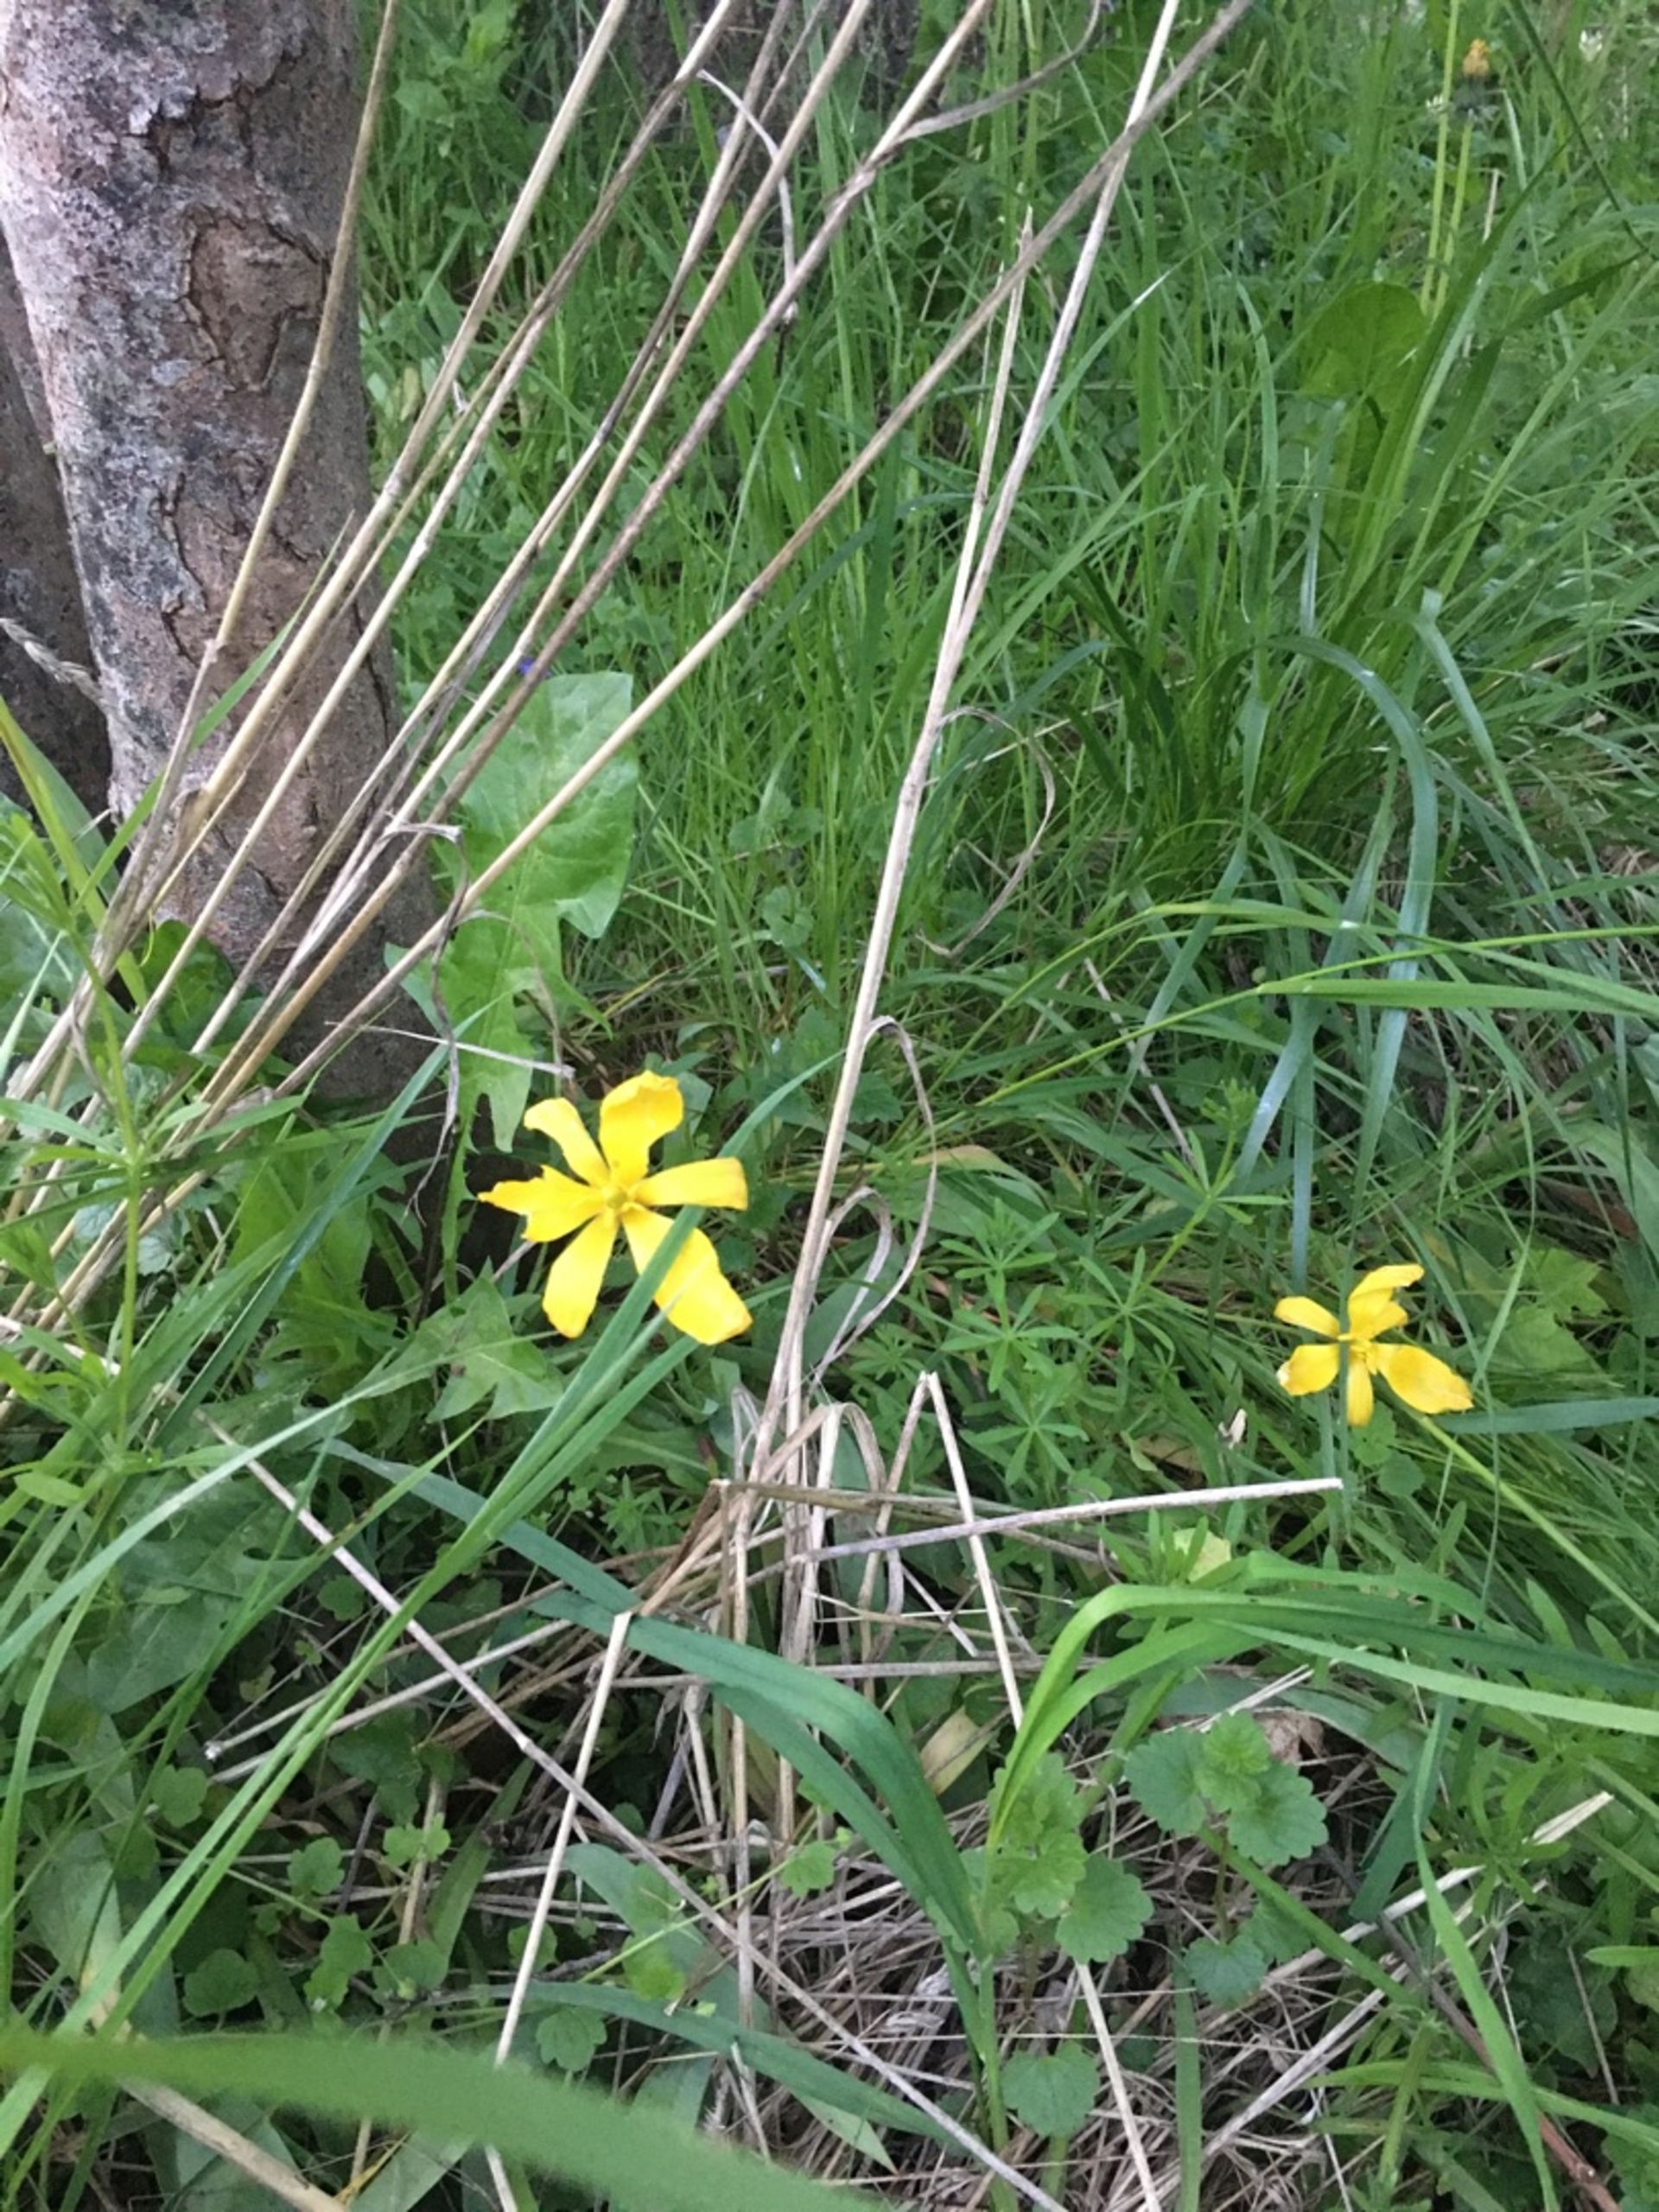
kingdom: Plantae
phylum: Tracheophyta
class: Liliopsida
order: Liliales
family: Liliaceae
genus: Tulipa
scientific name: Tulipa sylvestris
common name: Vild tulipan
